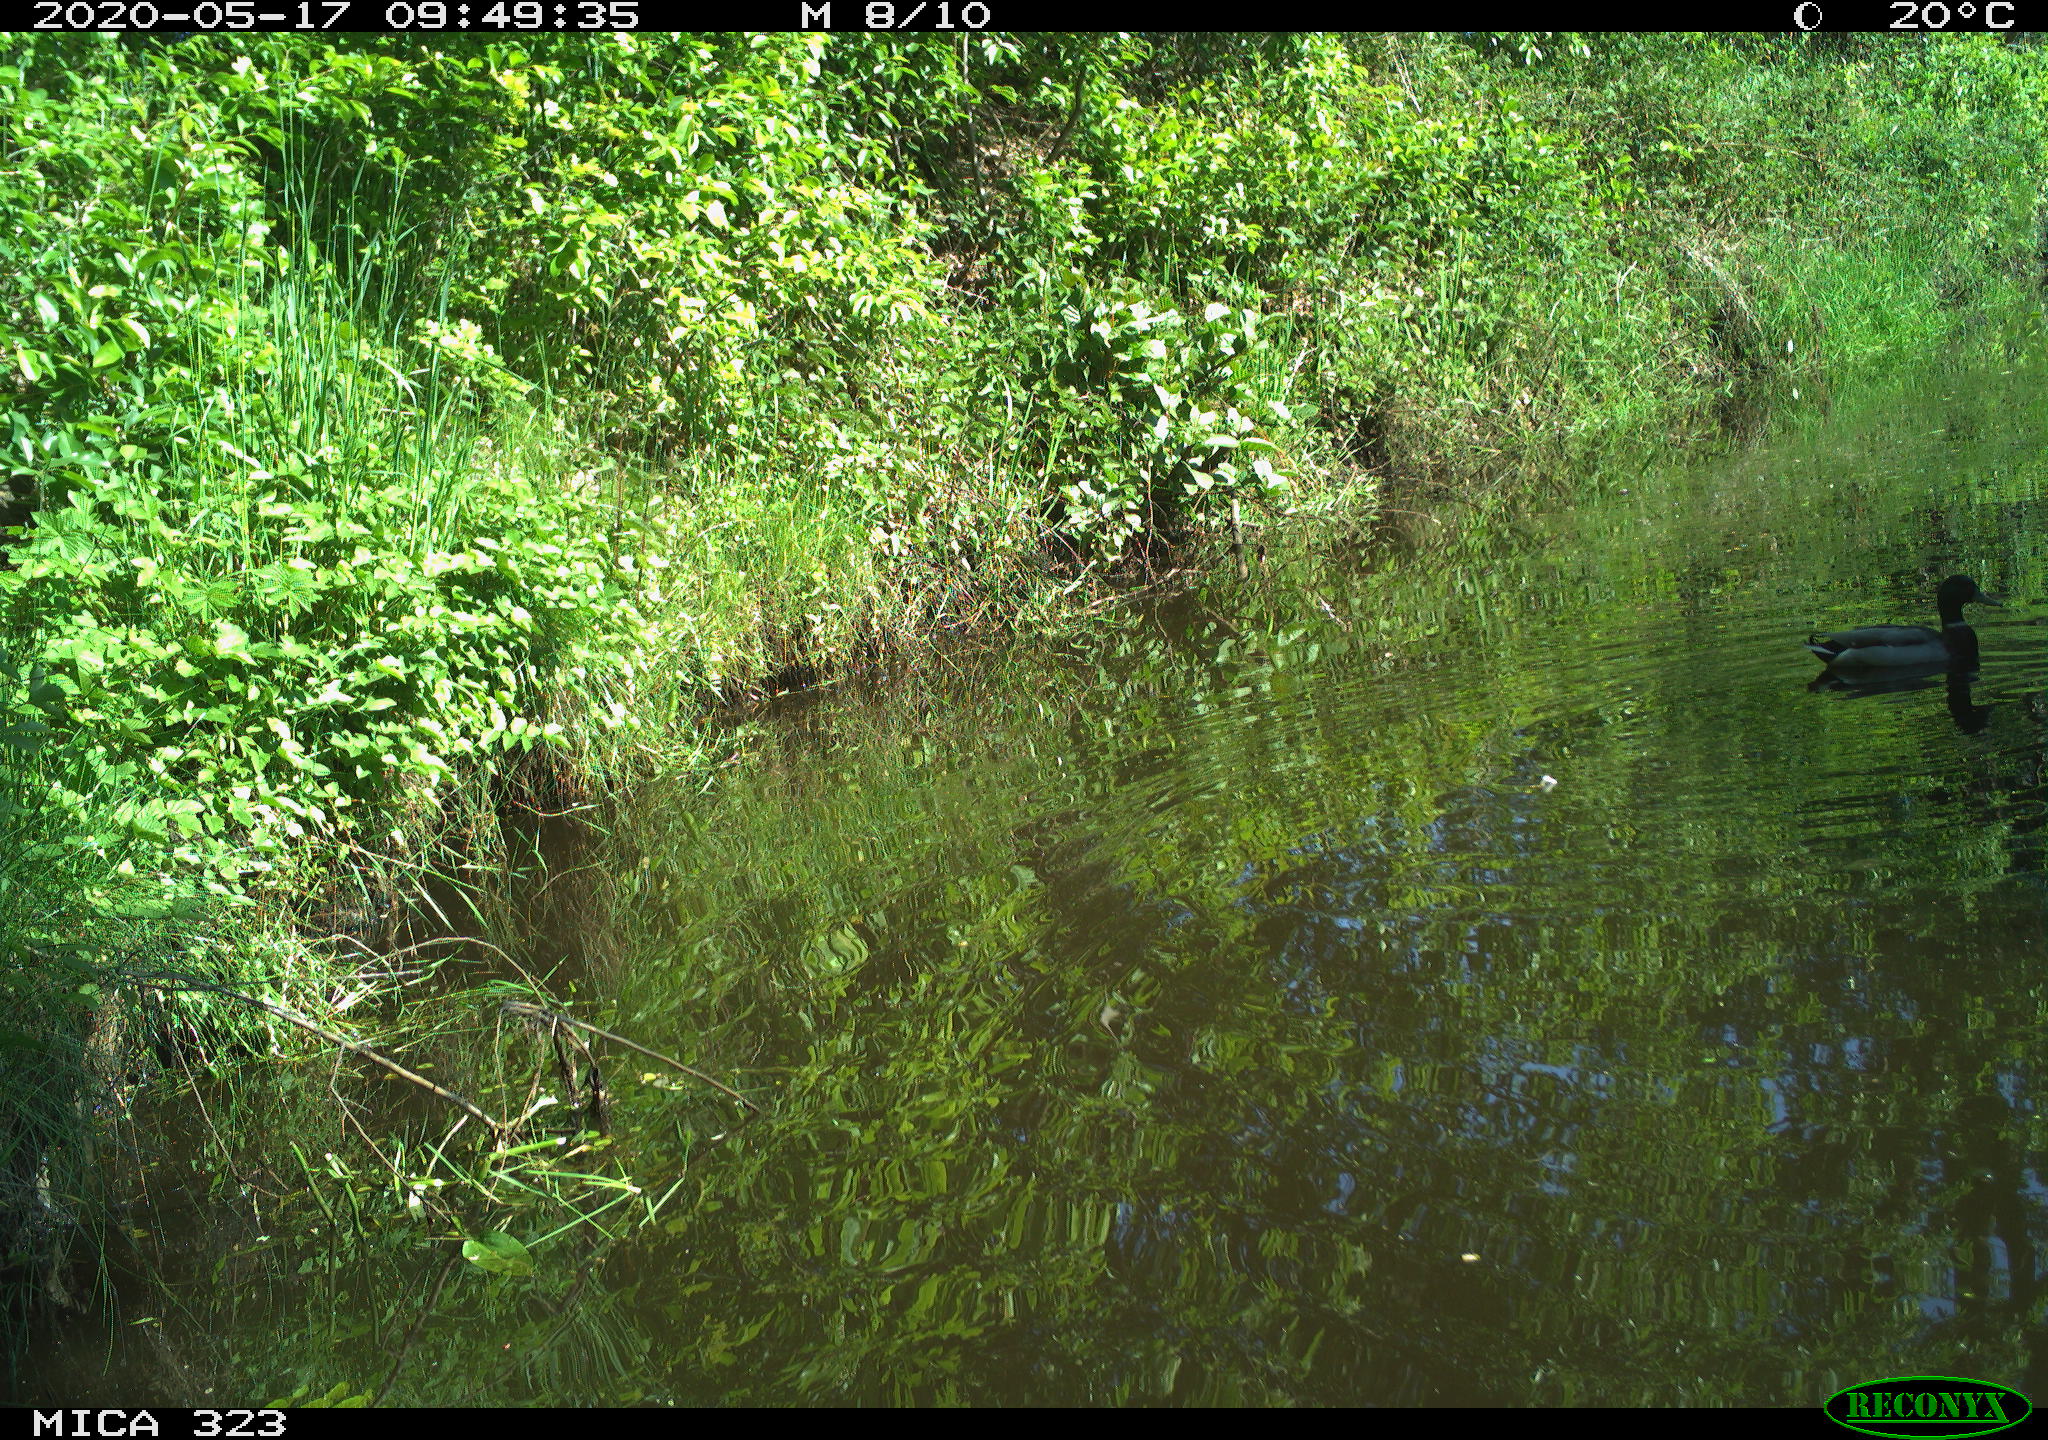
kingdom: Animalia
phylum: Chordata
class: Aves
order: Anseriformes
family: Anatidae
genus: Anas
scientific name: Anas platyrhynchos
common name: Mallard
